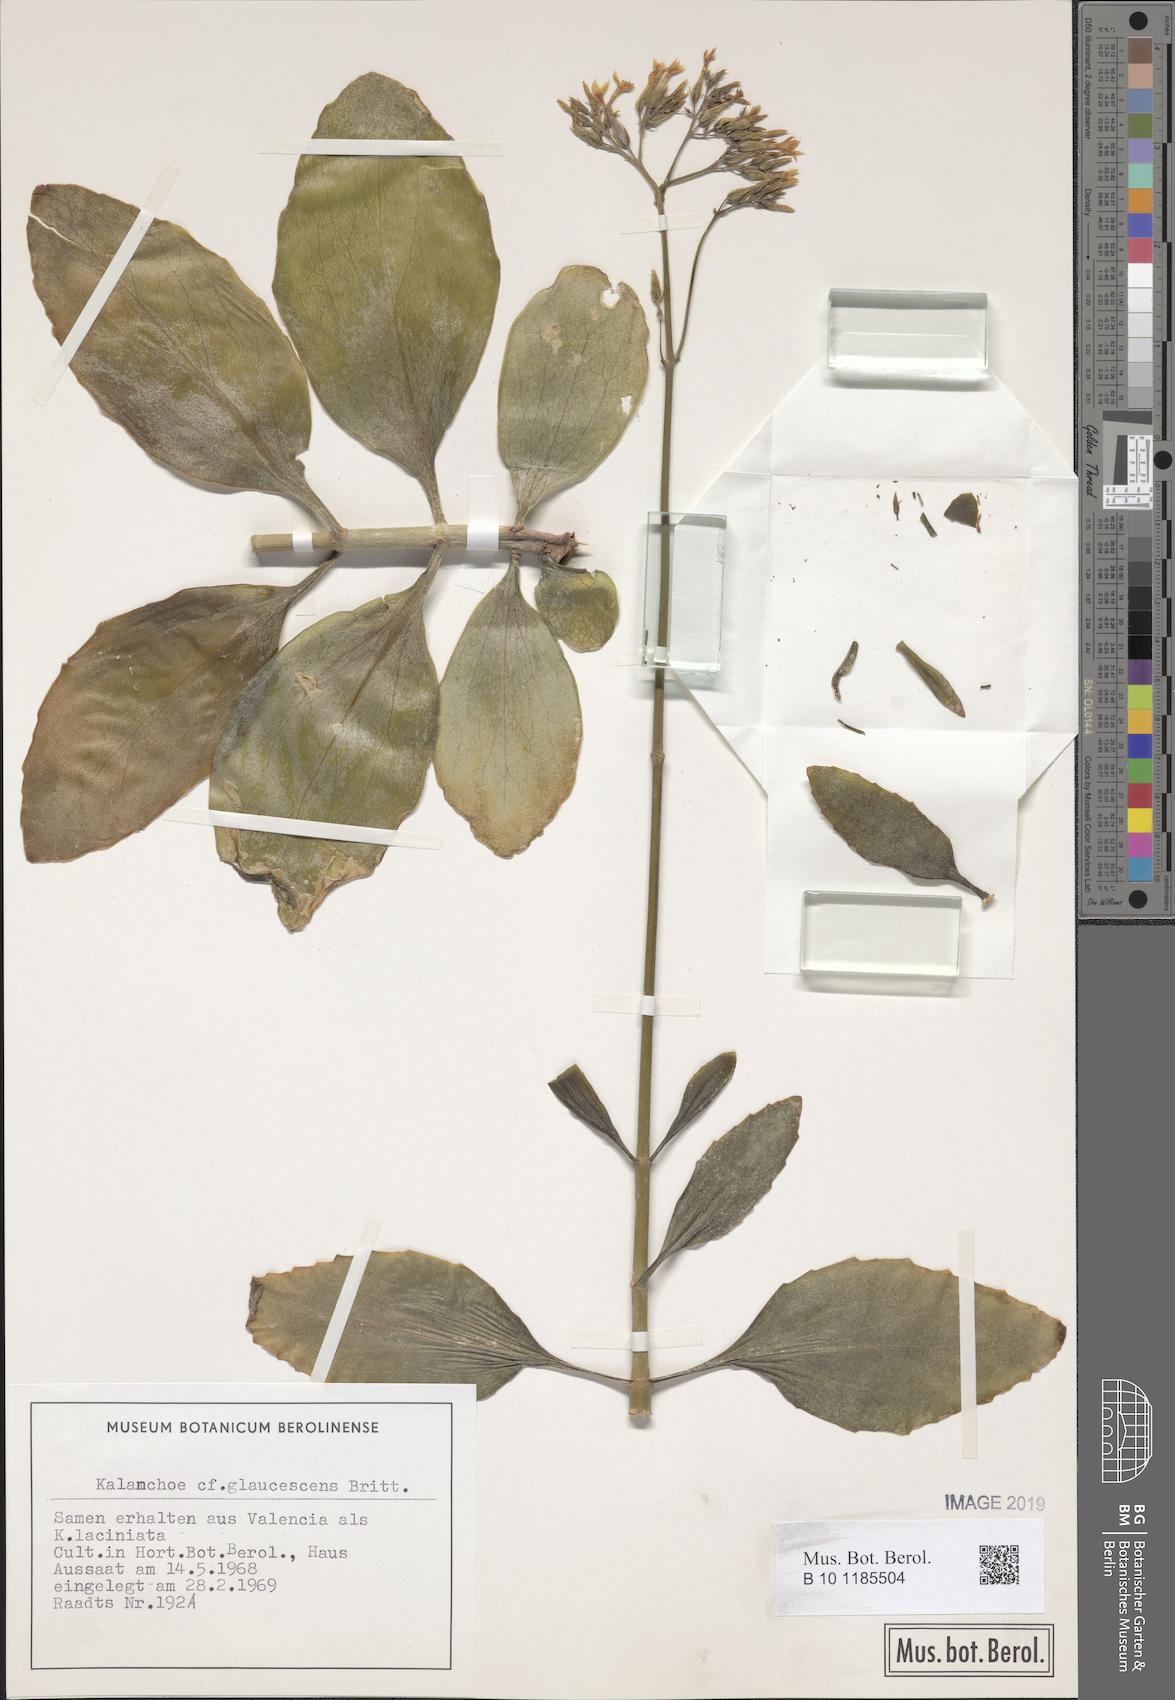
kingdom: Plantae
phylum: Tracheophyta
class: Magnoliopsida
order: Saxifragales
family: Crassulaceae
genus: Kalanchoe
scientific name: Kalanchoe glaucescens
